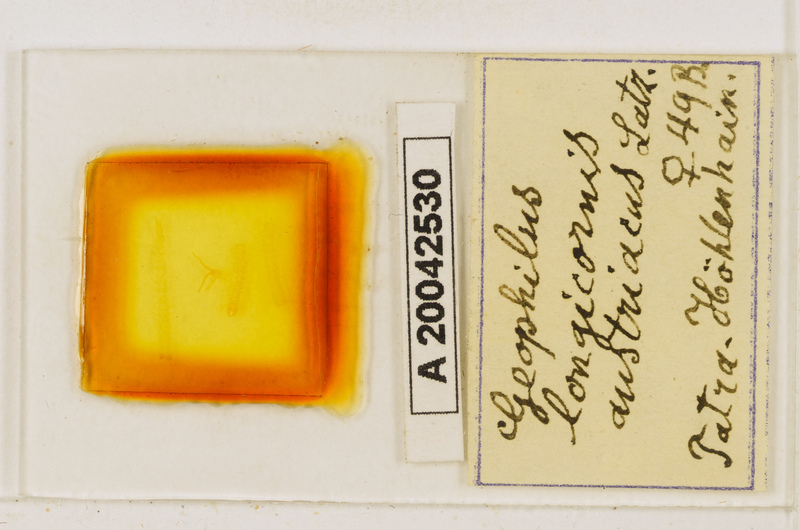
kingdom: Animalia
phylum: Arthropoda
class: Chilopoda
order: Geophilomorpha
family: Geophilidae
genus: Geophilus
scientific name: Geophilus flavus
